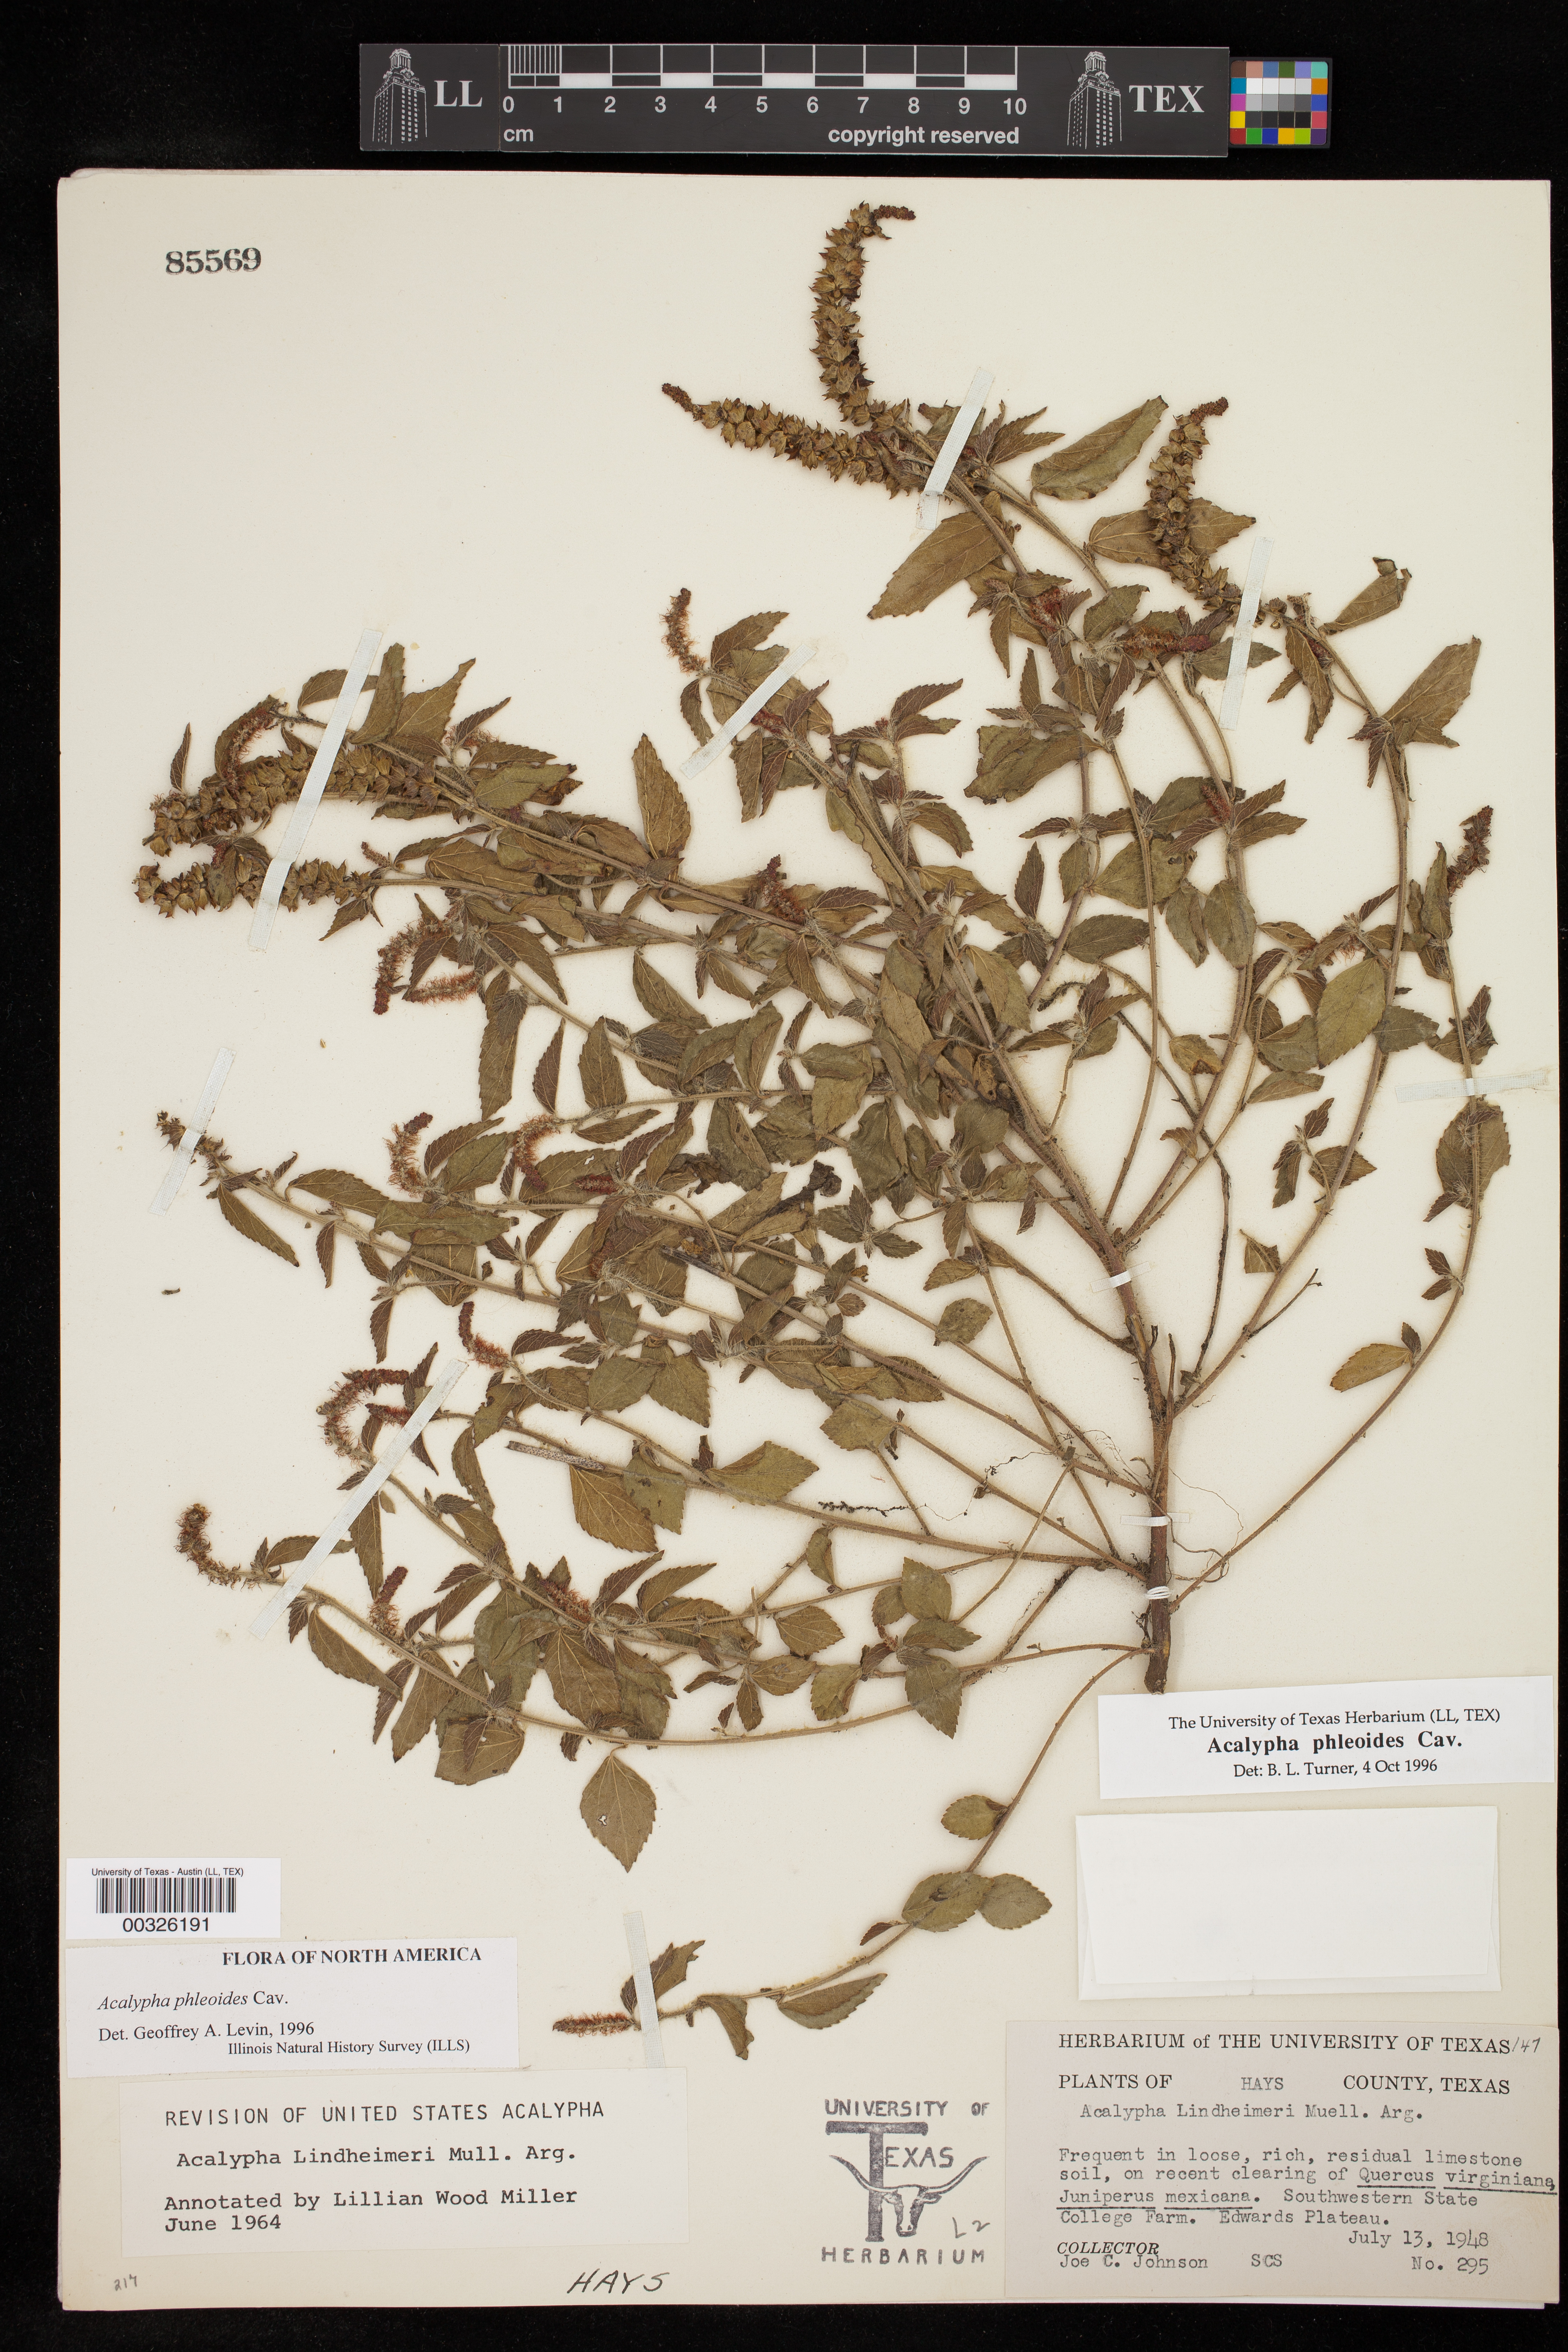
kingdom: Plantae
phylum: Tracheophyta
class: Magnoliopsida
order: Malpighiales
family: Euphorbiaceae
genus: Acalypha
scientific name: Acalypha phleoides
